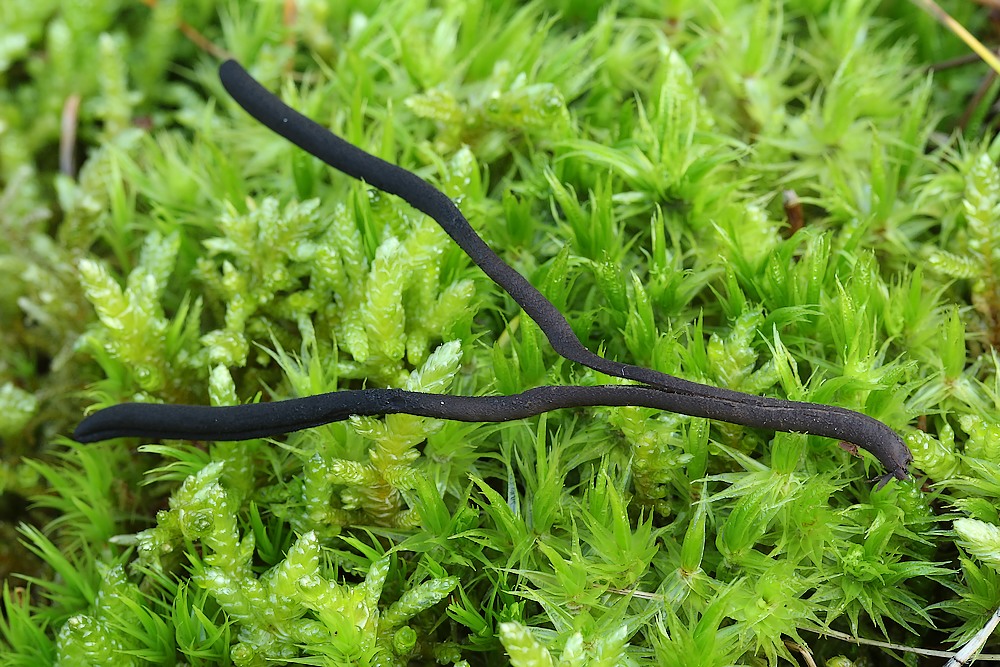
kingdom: Fungi
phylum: Ascomycota
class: Geoglossomycetes
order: Geoglossales
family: Geoglossaceae
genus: Geoglossum
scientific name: Geoglossum umbratile
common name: slank jordtunge
